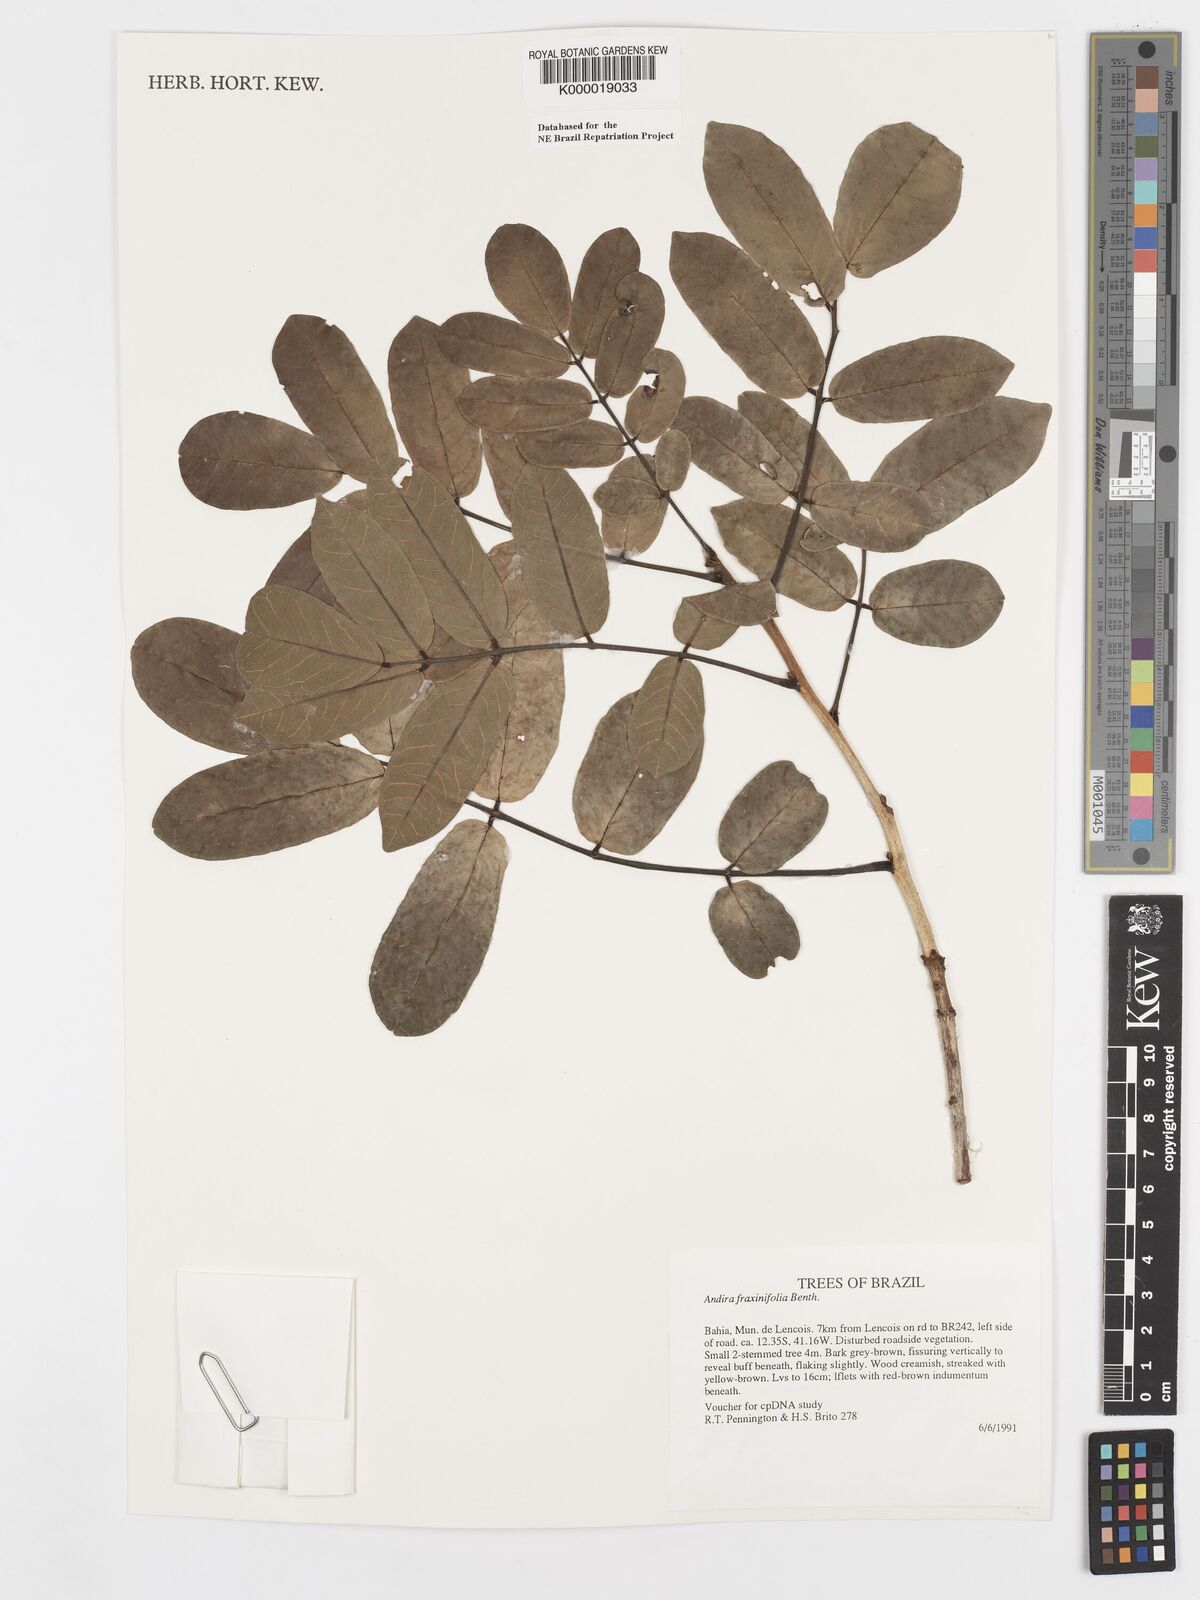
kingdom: Plantae
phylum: Tracheophyta
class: Magnoliopsida
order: Fabales
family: Fabaceae
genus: Andira
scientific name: Andira fraxinifolia
